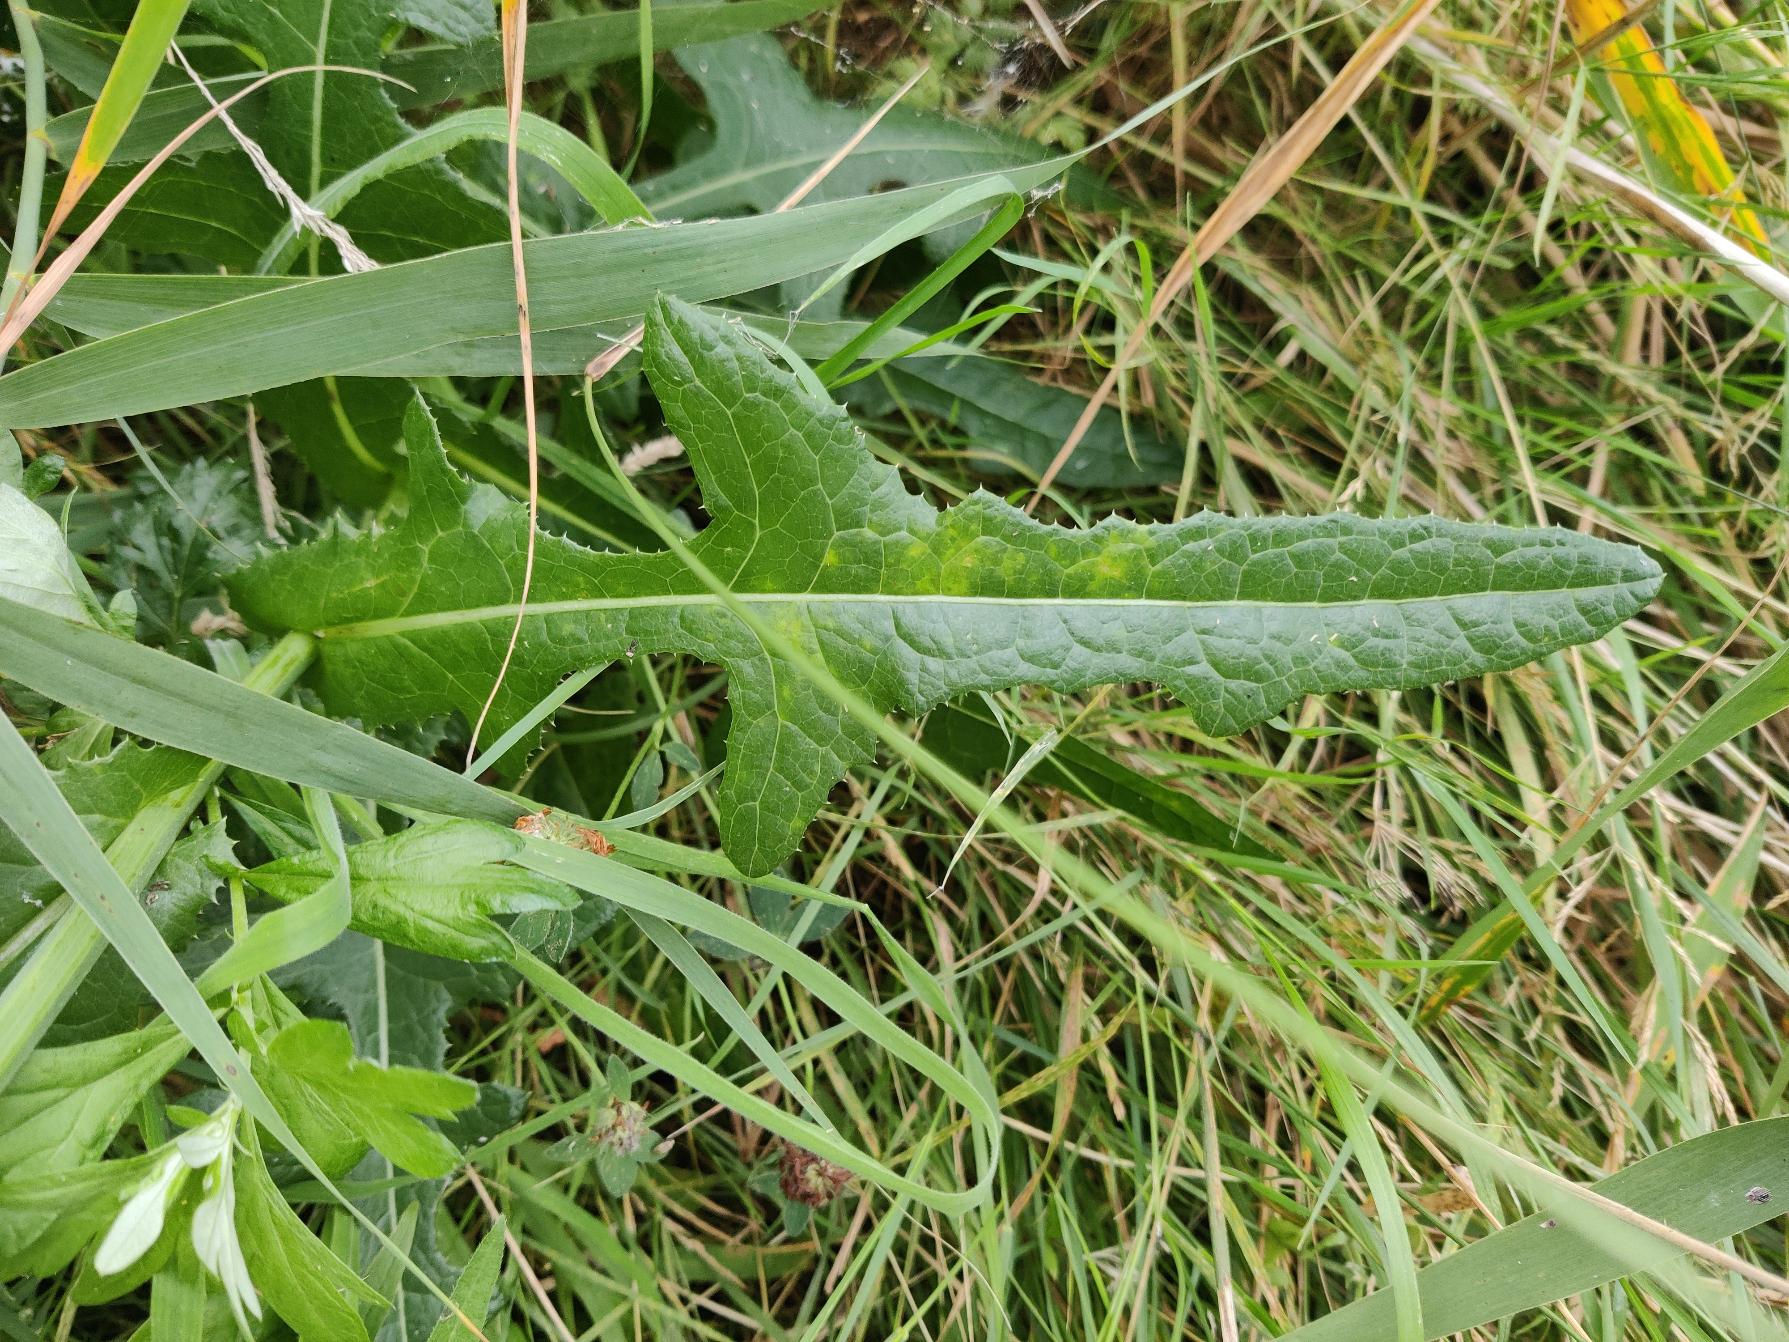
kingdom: Plantae
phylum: Tracheophyta
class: Magnoliopsida
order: Asterales
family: Asteraceae
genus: Sonchus
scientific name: Sonchus arvensis
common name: Ager-svinemælk
